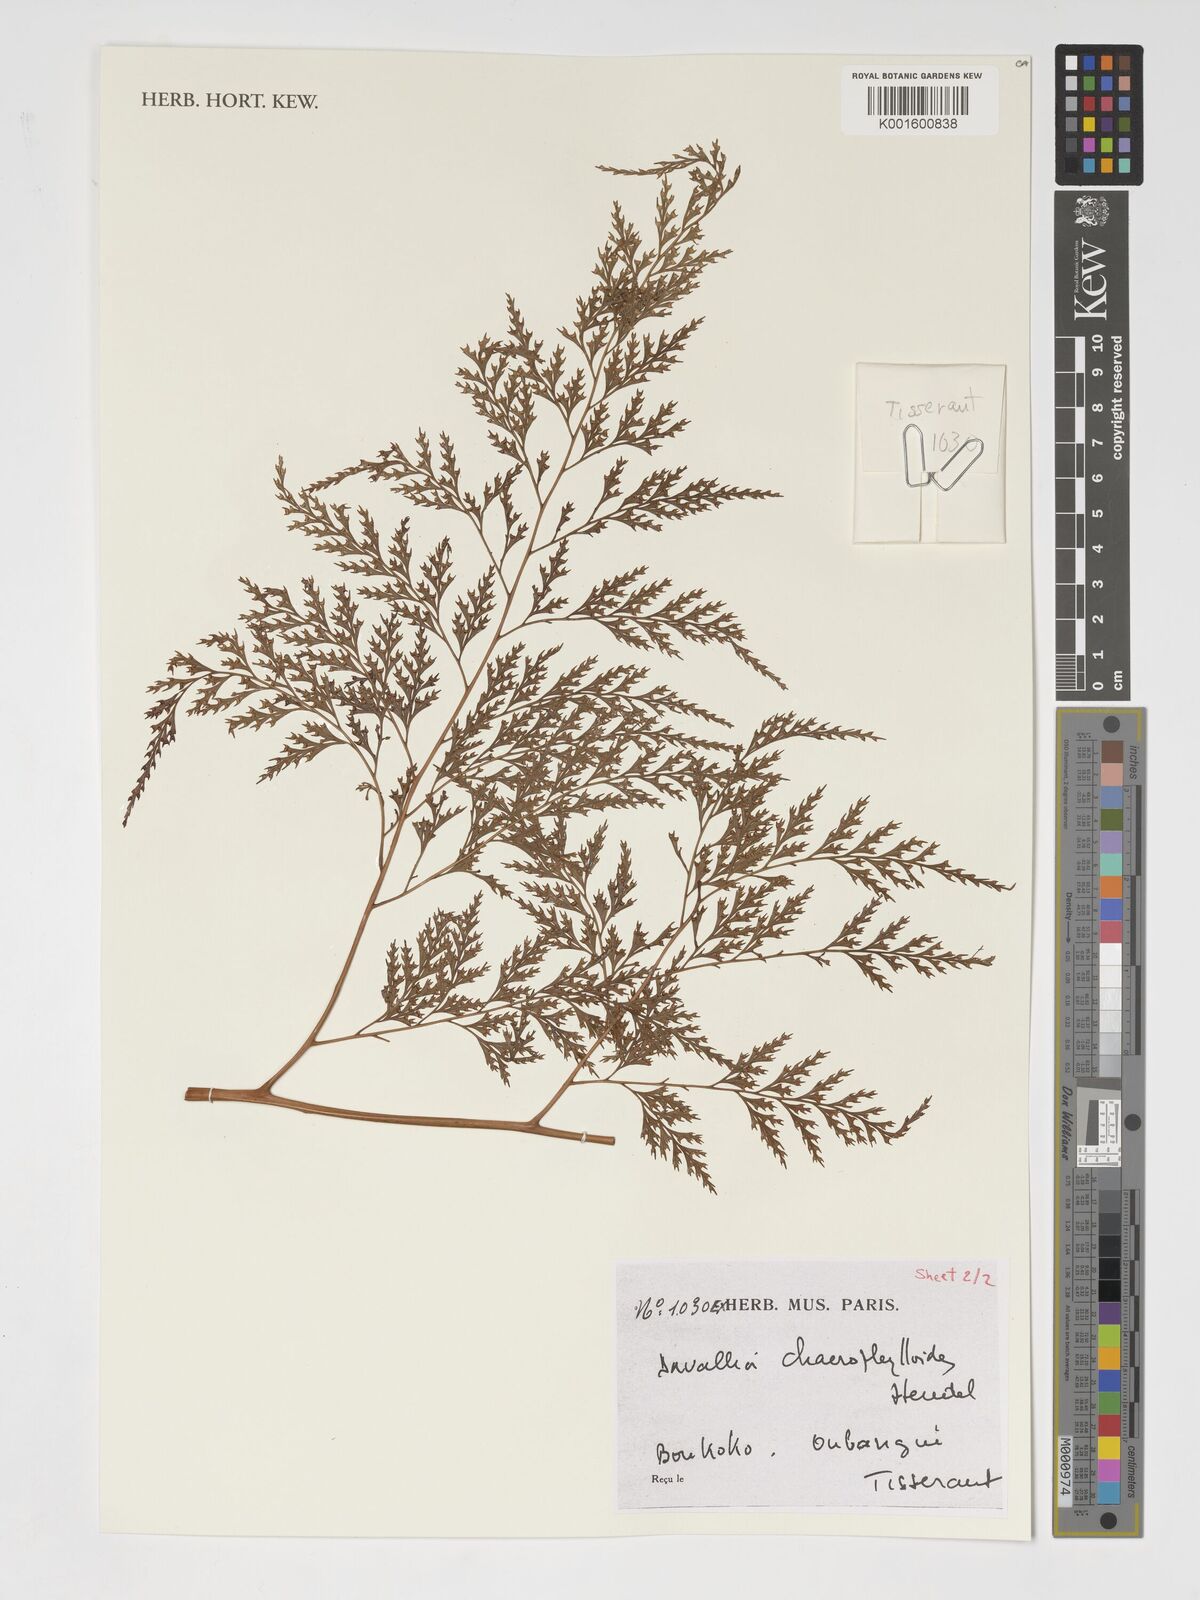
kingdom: Plantae
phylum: Tracheophyta
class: Polypodiopsida
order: Polypodiales
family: Davalliaceae
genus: Davallia
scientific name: Davallia chaerophylloides
